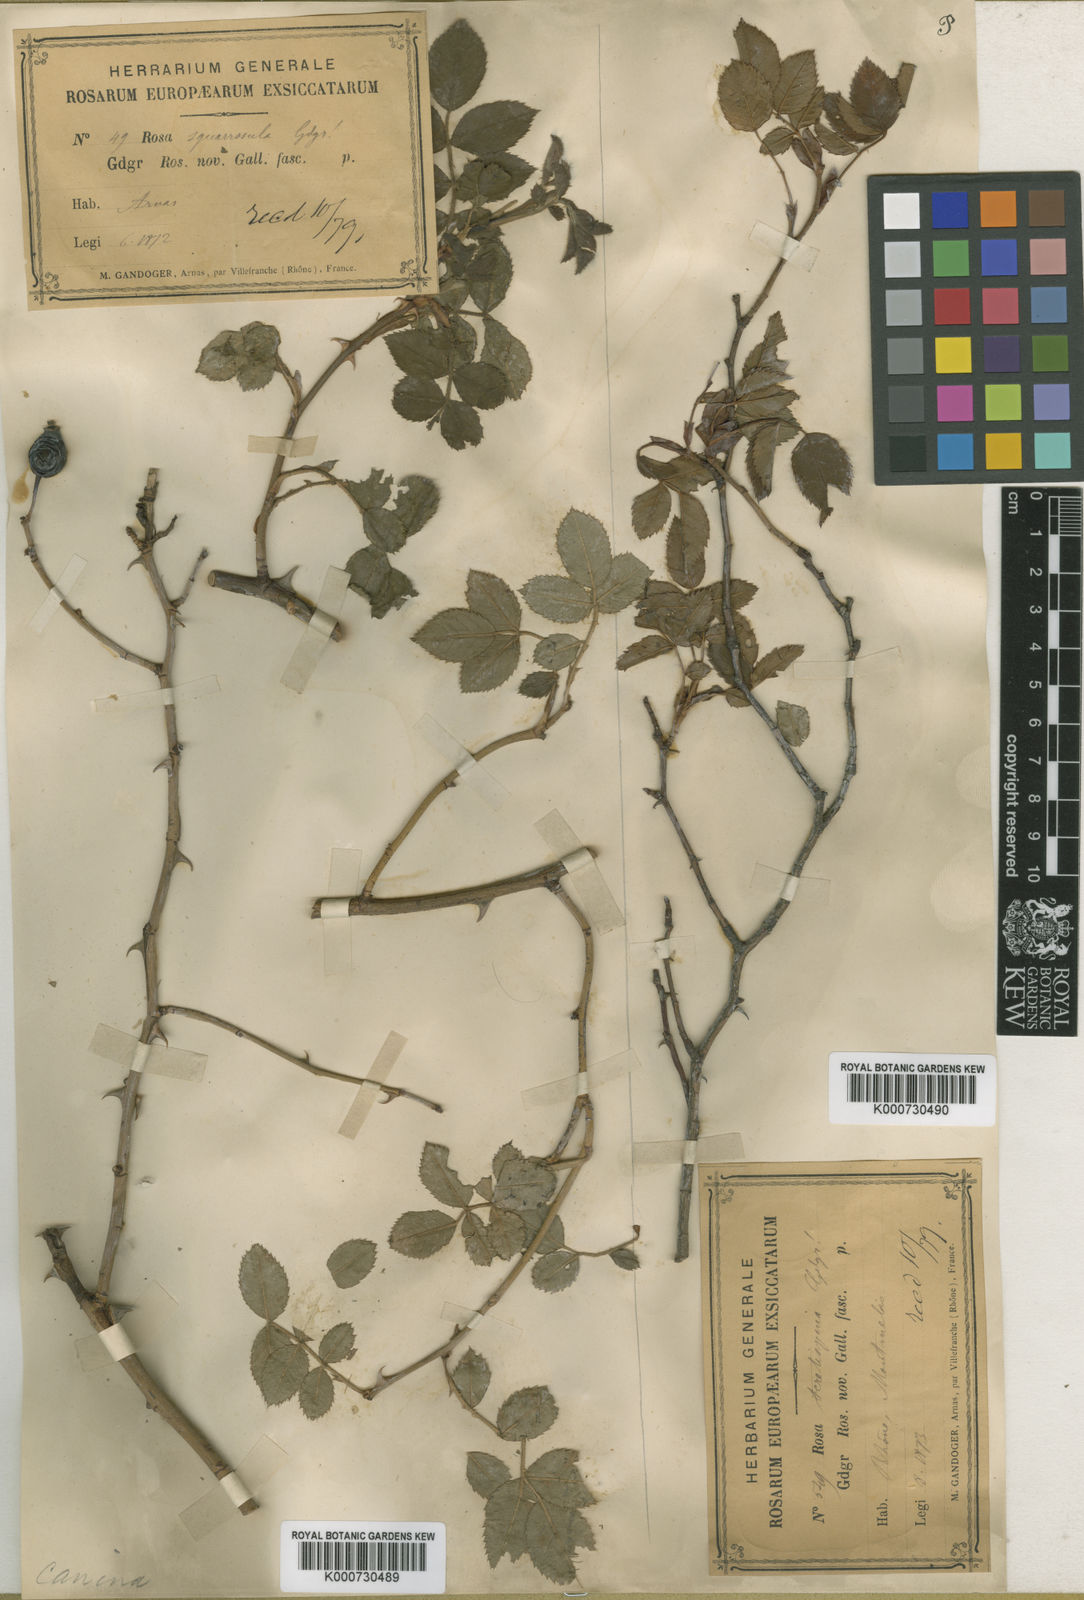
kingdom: Plantae
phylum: Tracheophyta
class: Magnoliopsida
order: Rosales
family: Rosaceae
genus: Rosa
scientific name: Rosa canina
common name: Dog rose
